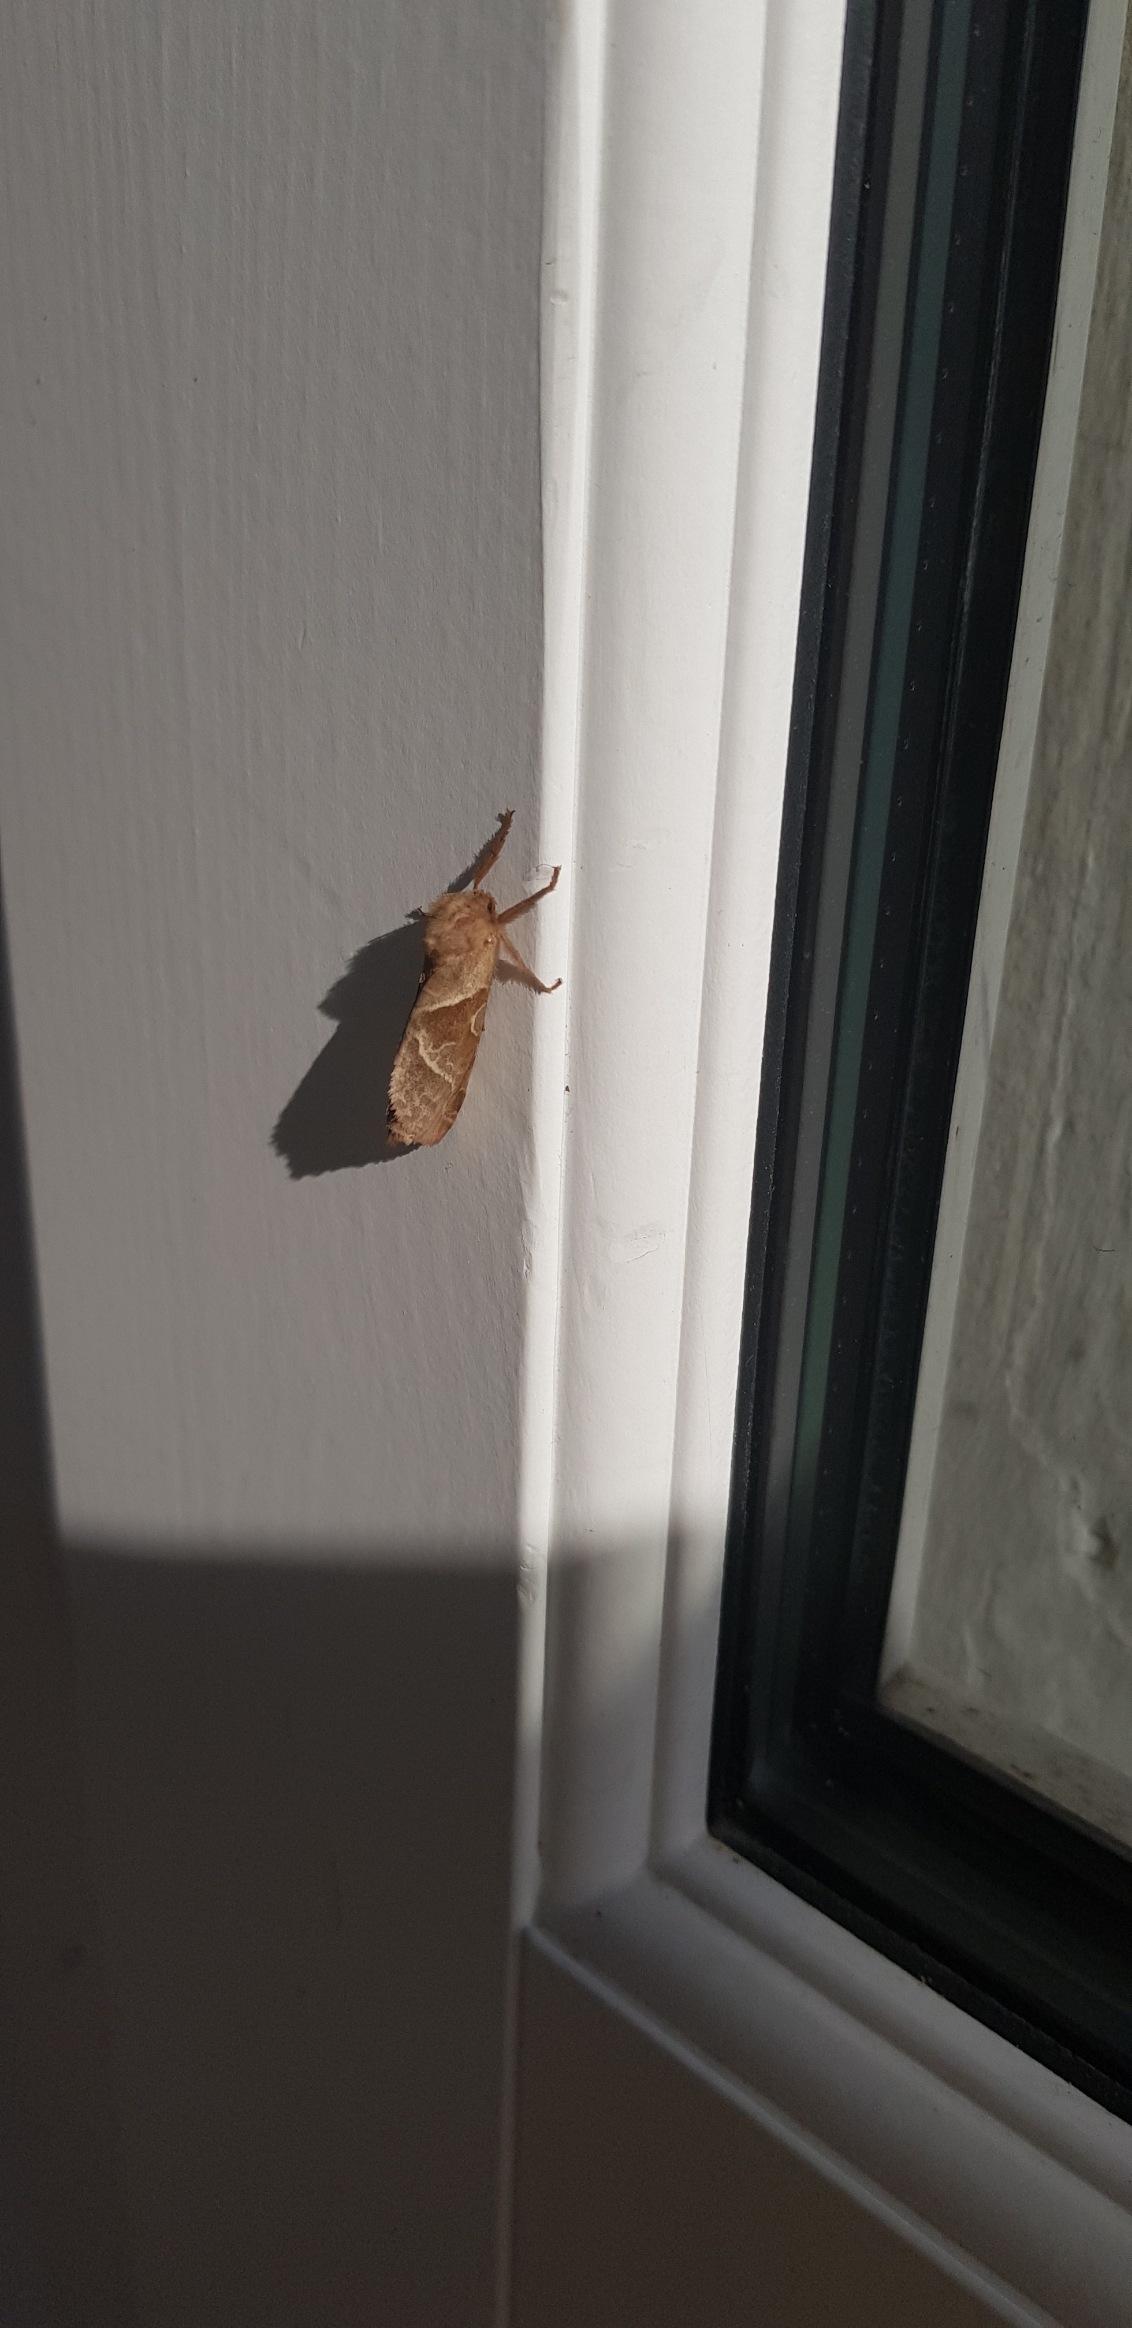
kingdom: Animalia
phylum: Arthropoda
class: Insecta
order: Lepidoptera
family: Hepialidae
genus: Triodia
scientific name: Triodia sylvina
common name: Skræpperodæder
